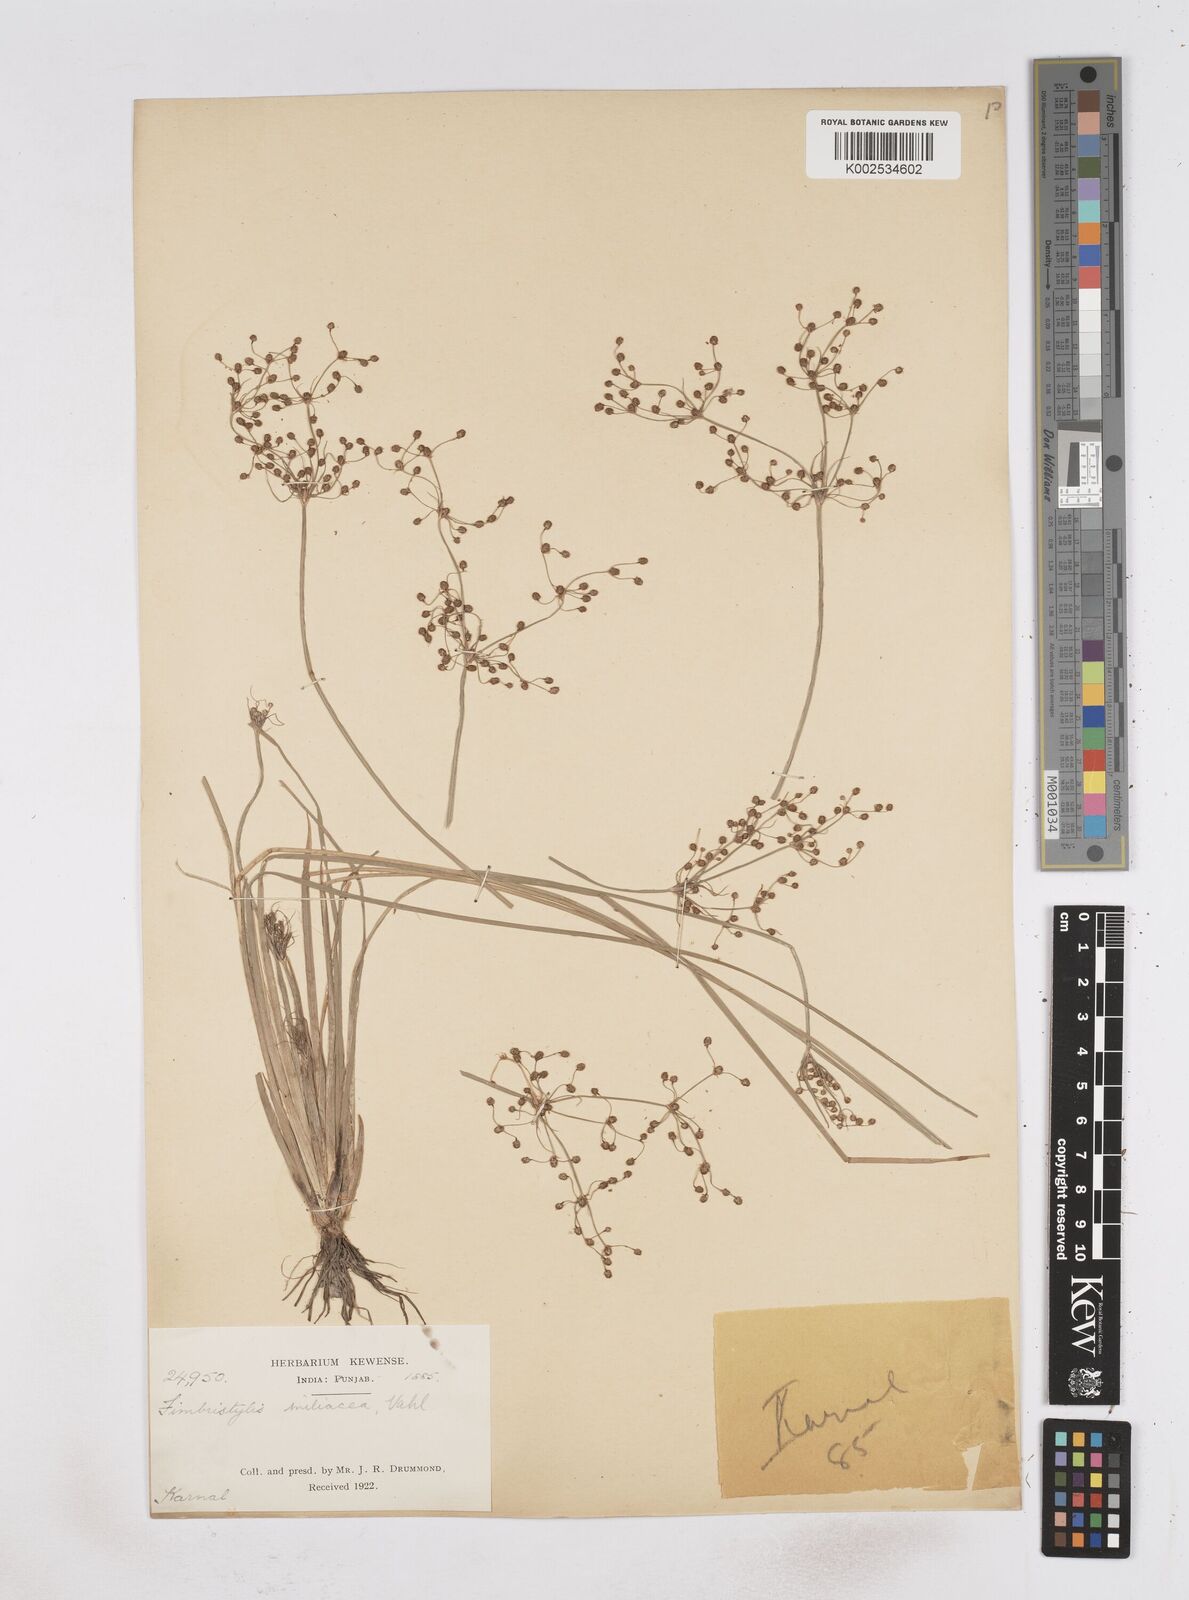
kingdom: Plantae
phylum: Tracheophyta
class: Liliopsida
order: Poales
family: Cyperaceae
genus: Fimbristylis
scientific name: Fimbristylis littoralis
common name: Fimbry
